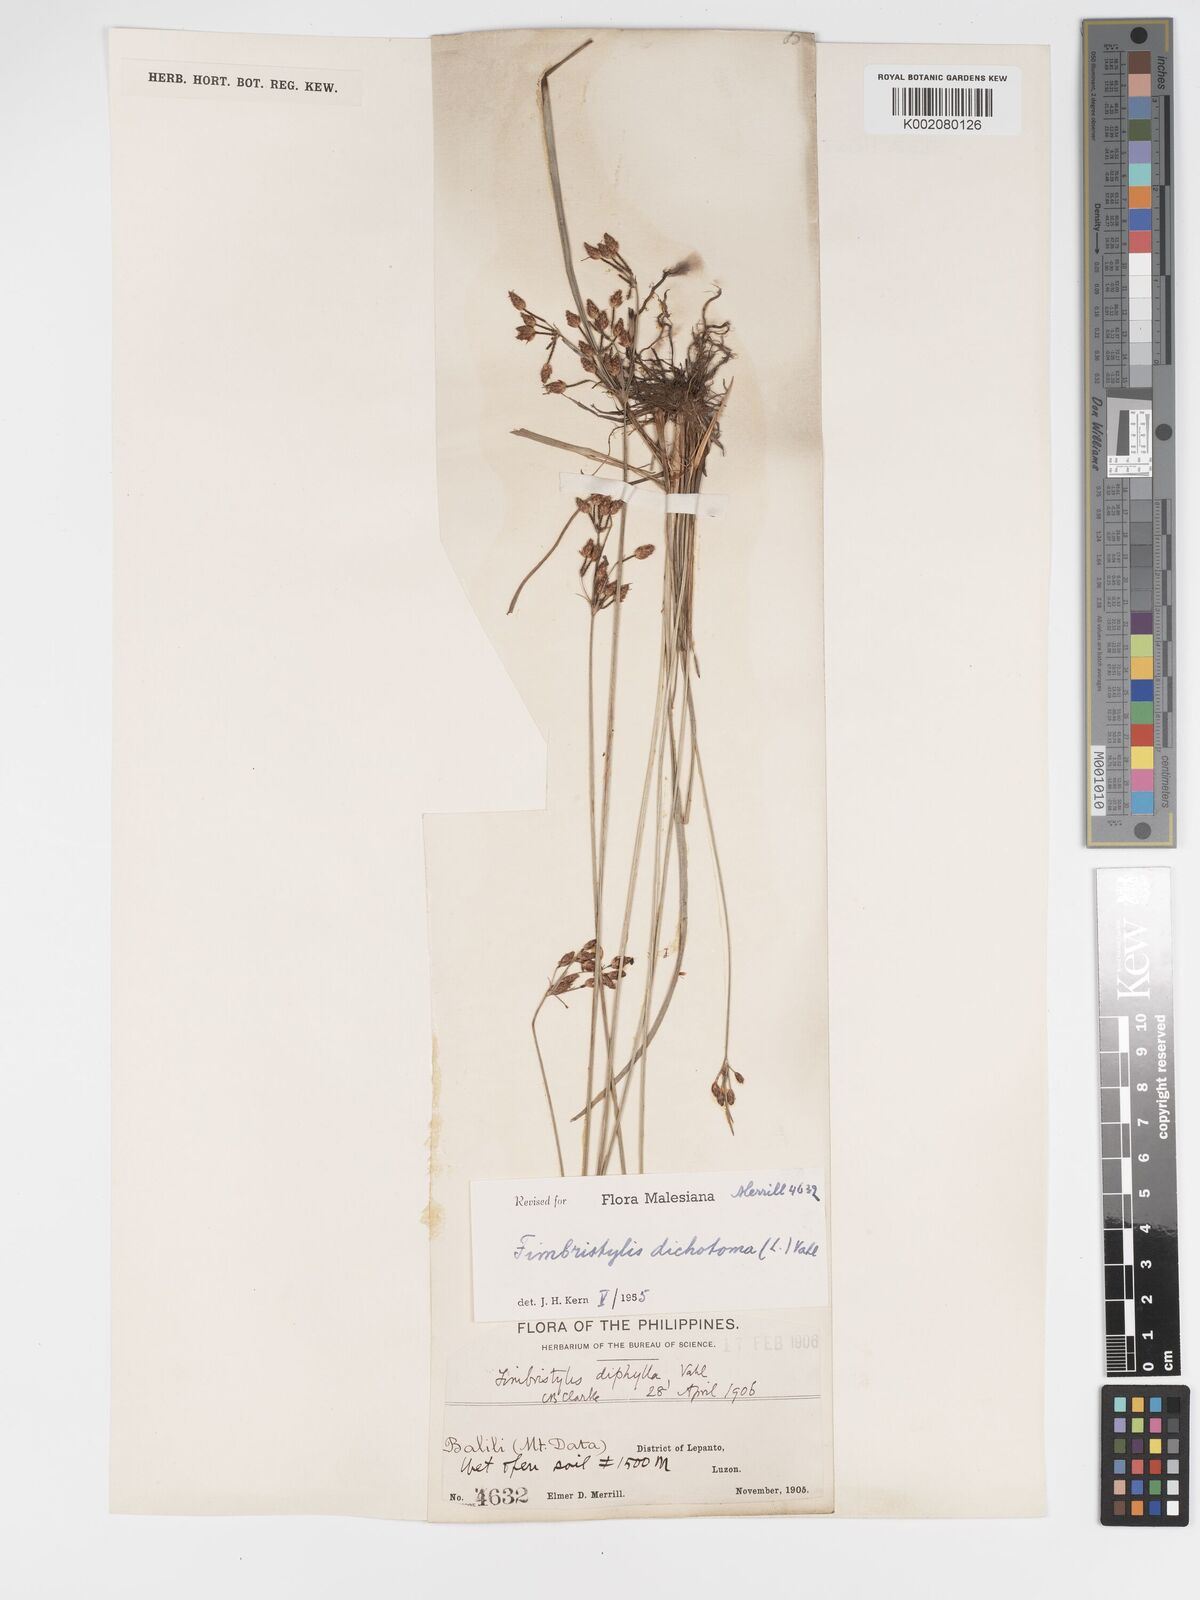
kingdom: Plantae
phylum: Tracheophyta
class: Liliopsida
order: Poales
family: Cyperaceae
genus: Fimbristylis
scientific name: Fimbristylis dichotoma
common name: Forked fimbry
